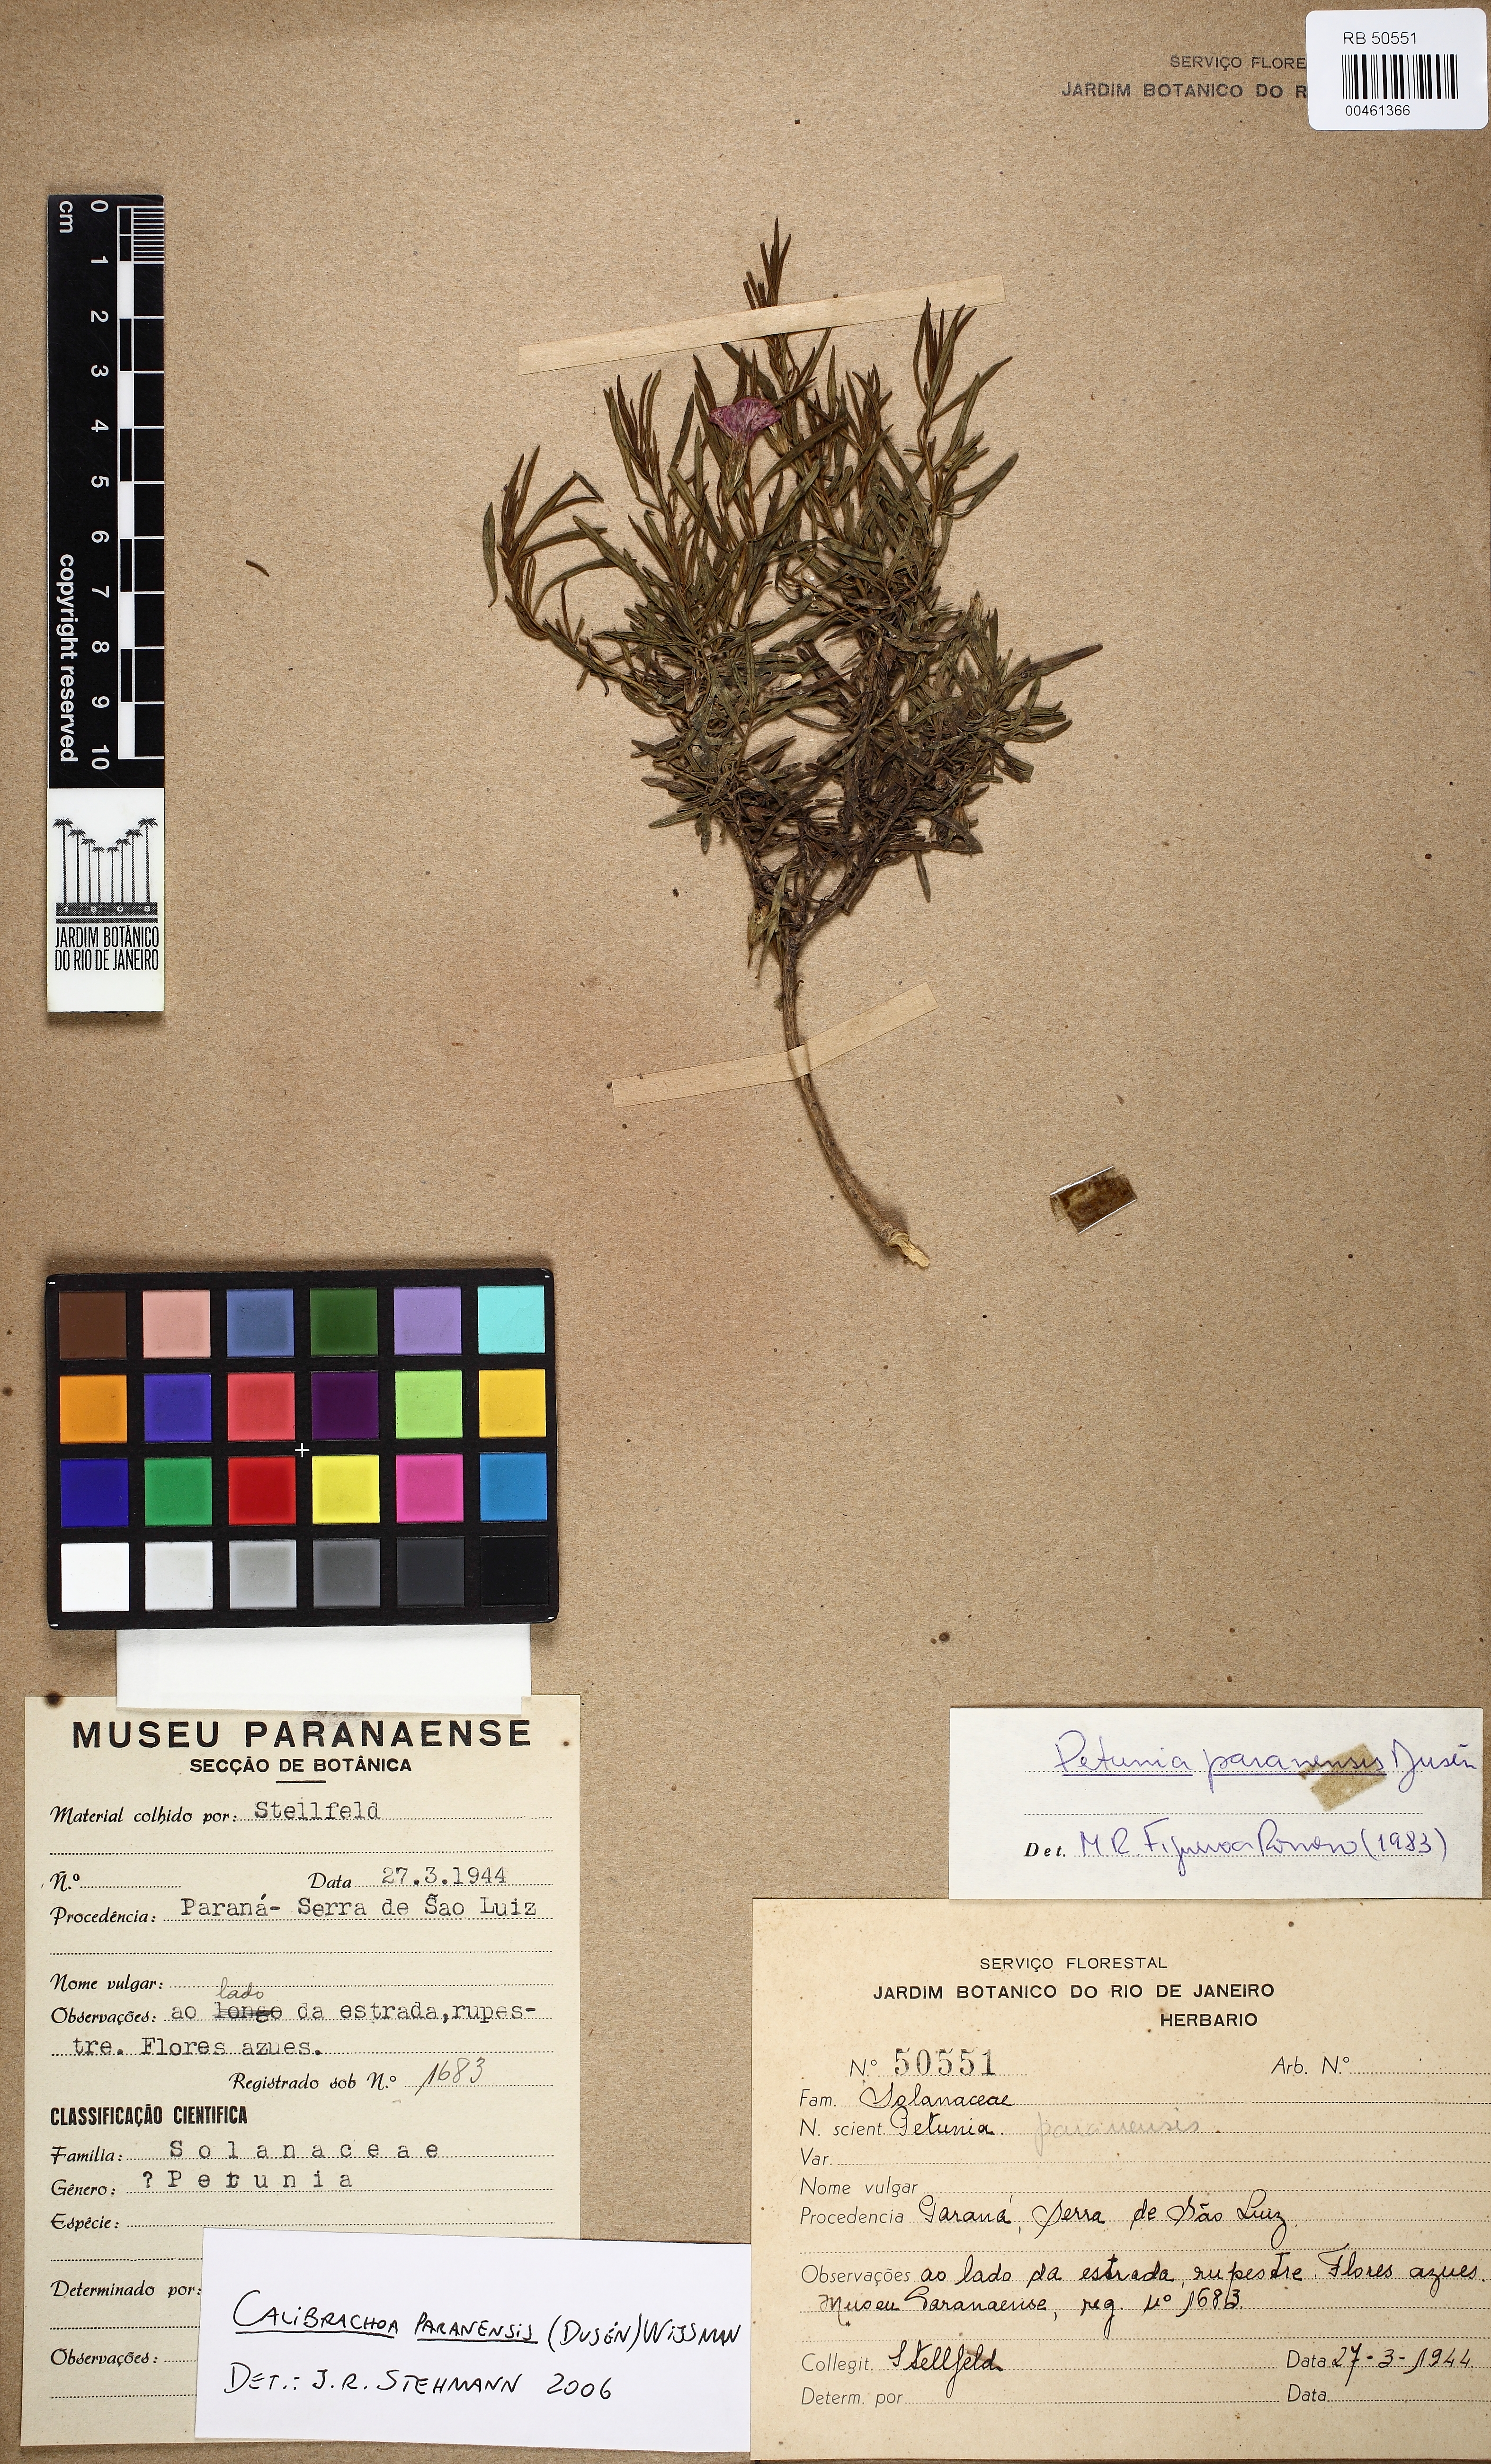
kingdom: Plantae
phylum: Tracheophyta
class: Magnoliopsida
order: Solanales
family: Solanaceae
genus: Calibrachoa
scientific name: Calibrachoa paranensis
